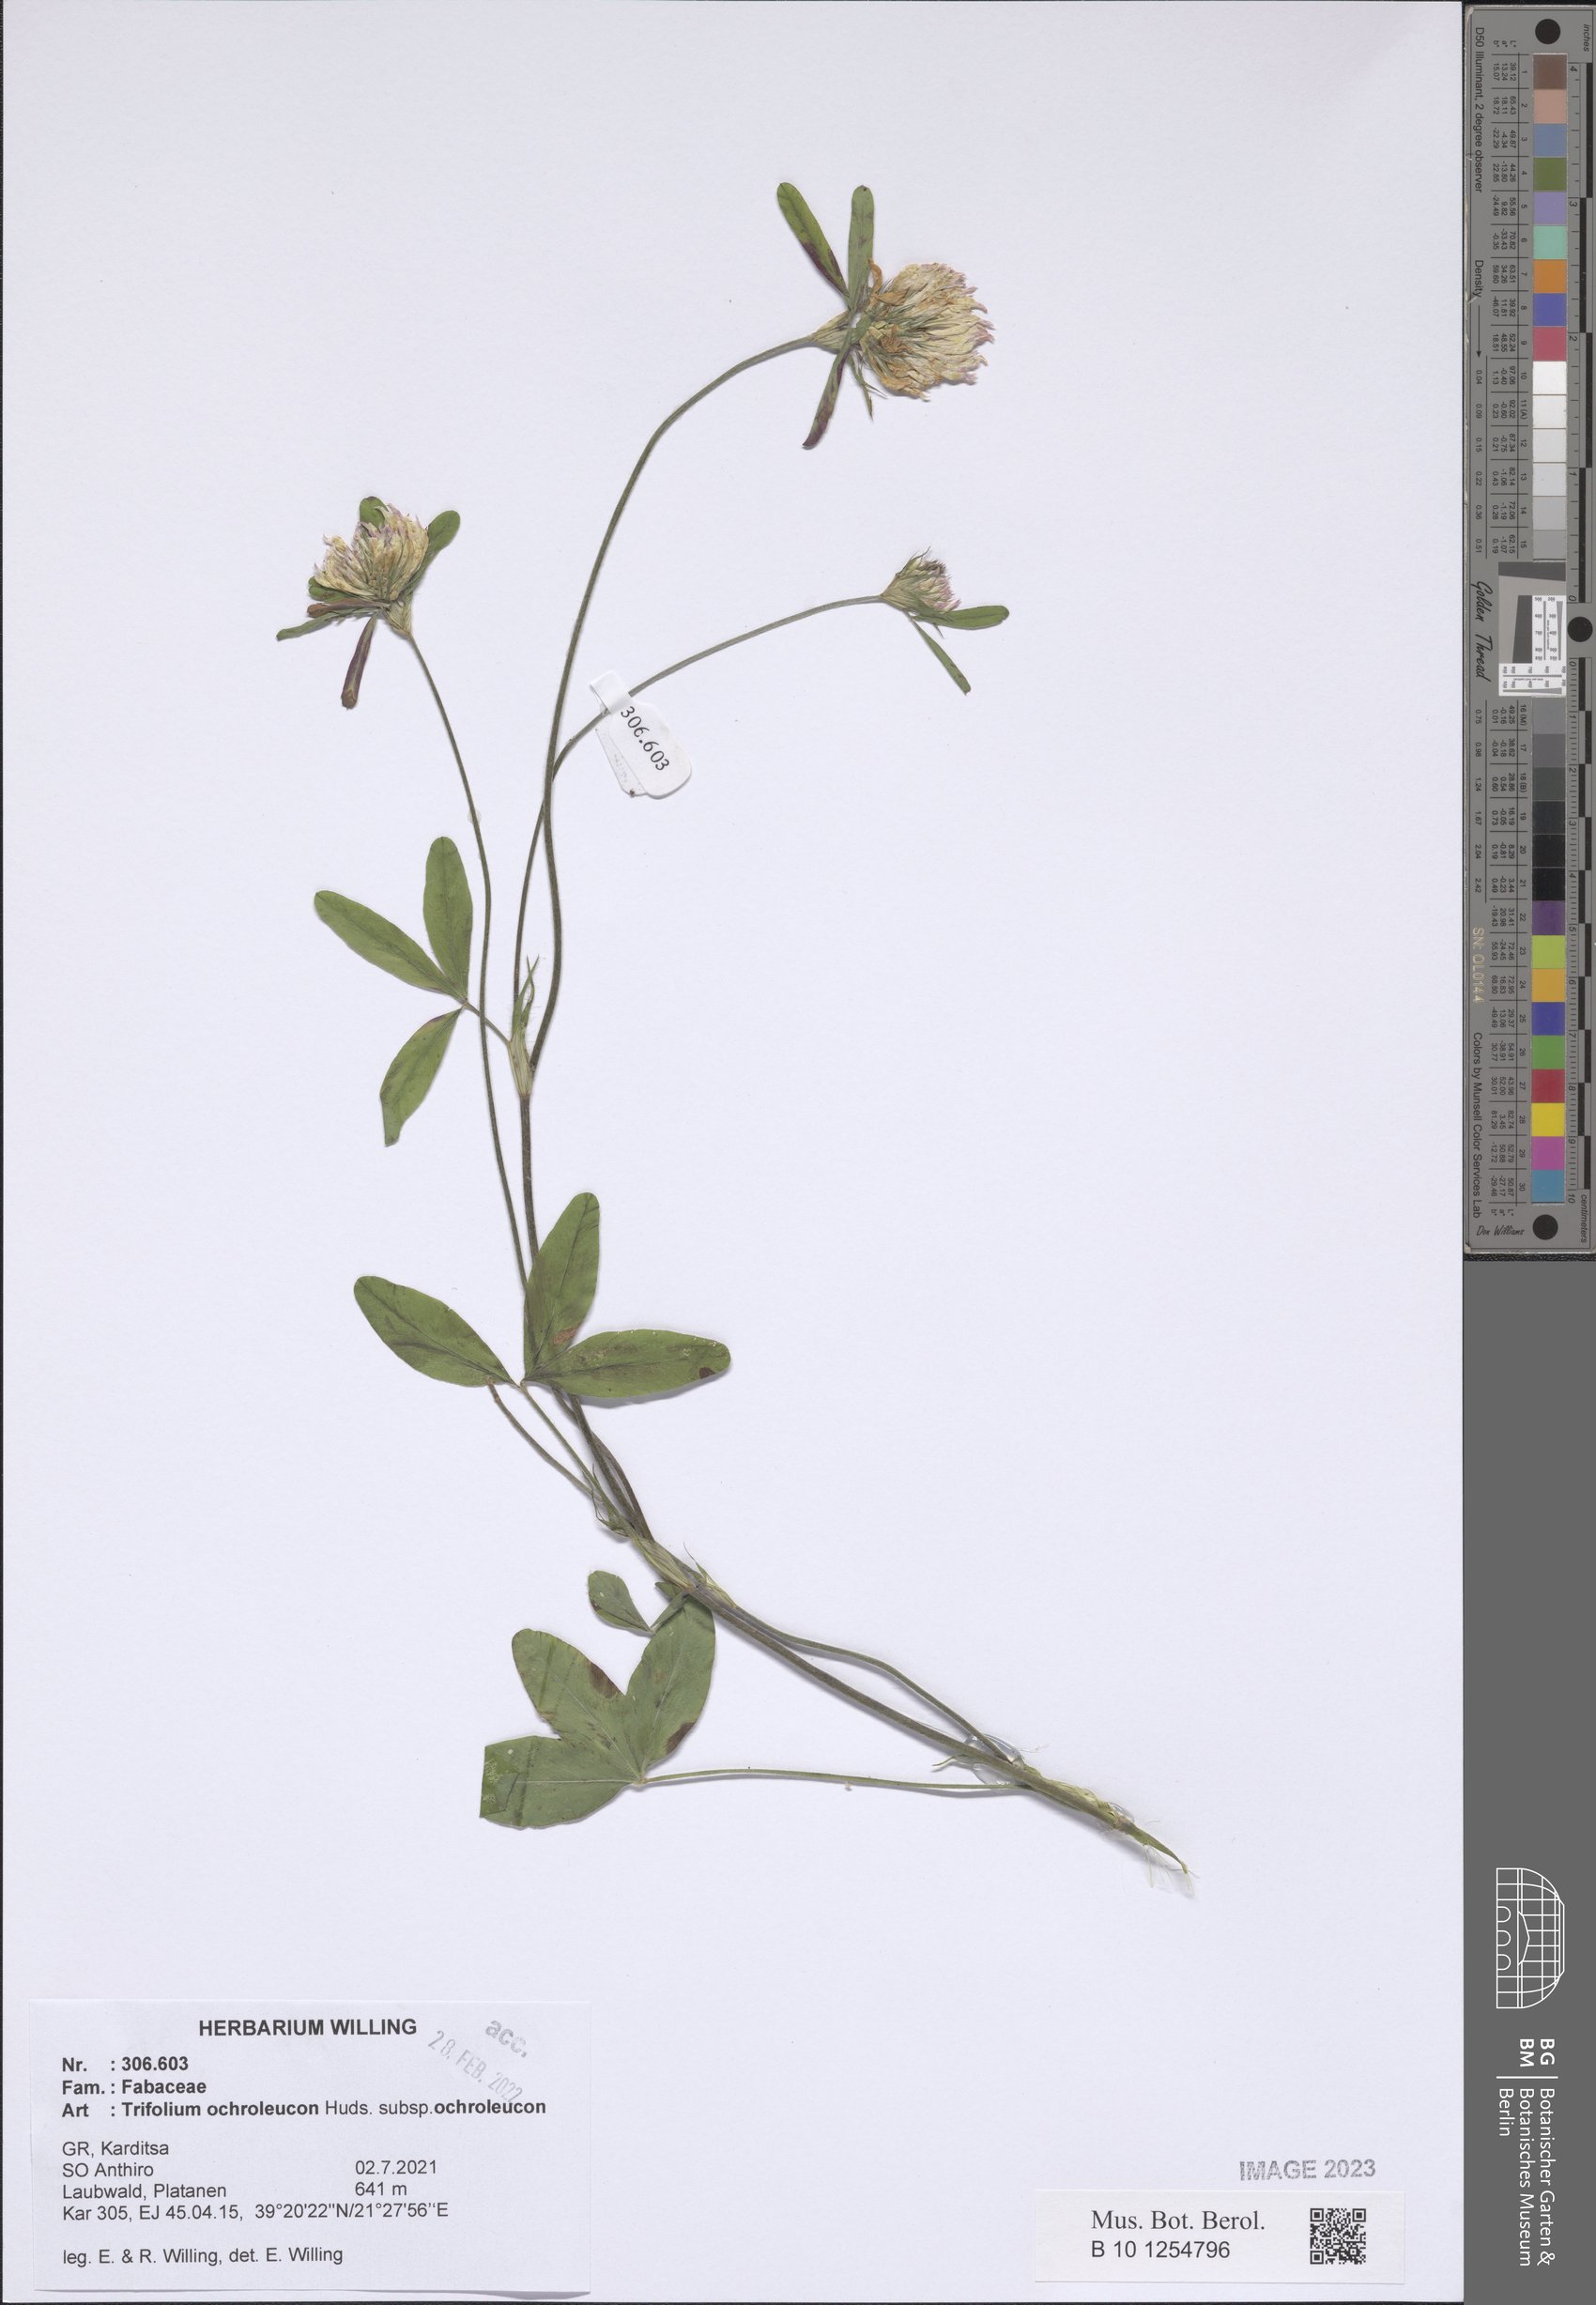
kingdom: Plantae
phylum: Tracheophyta
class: Magnoliopsida
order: Fabales
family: Fabaceae
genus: Trifolium
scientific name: Trifolium ochroleucon
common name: Sulphur clover
